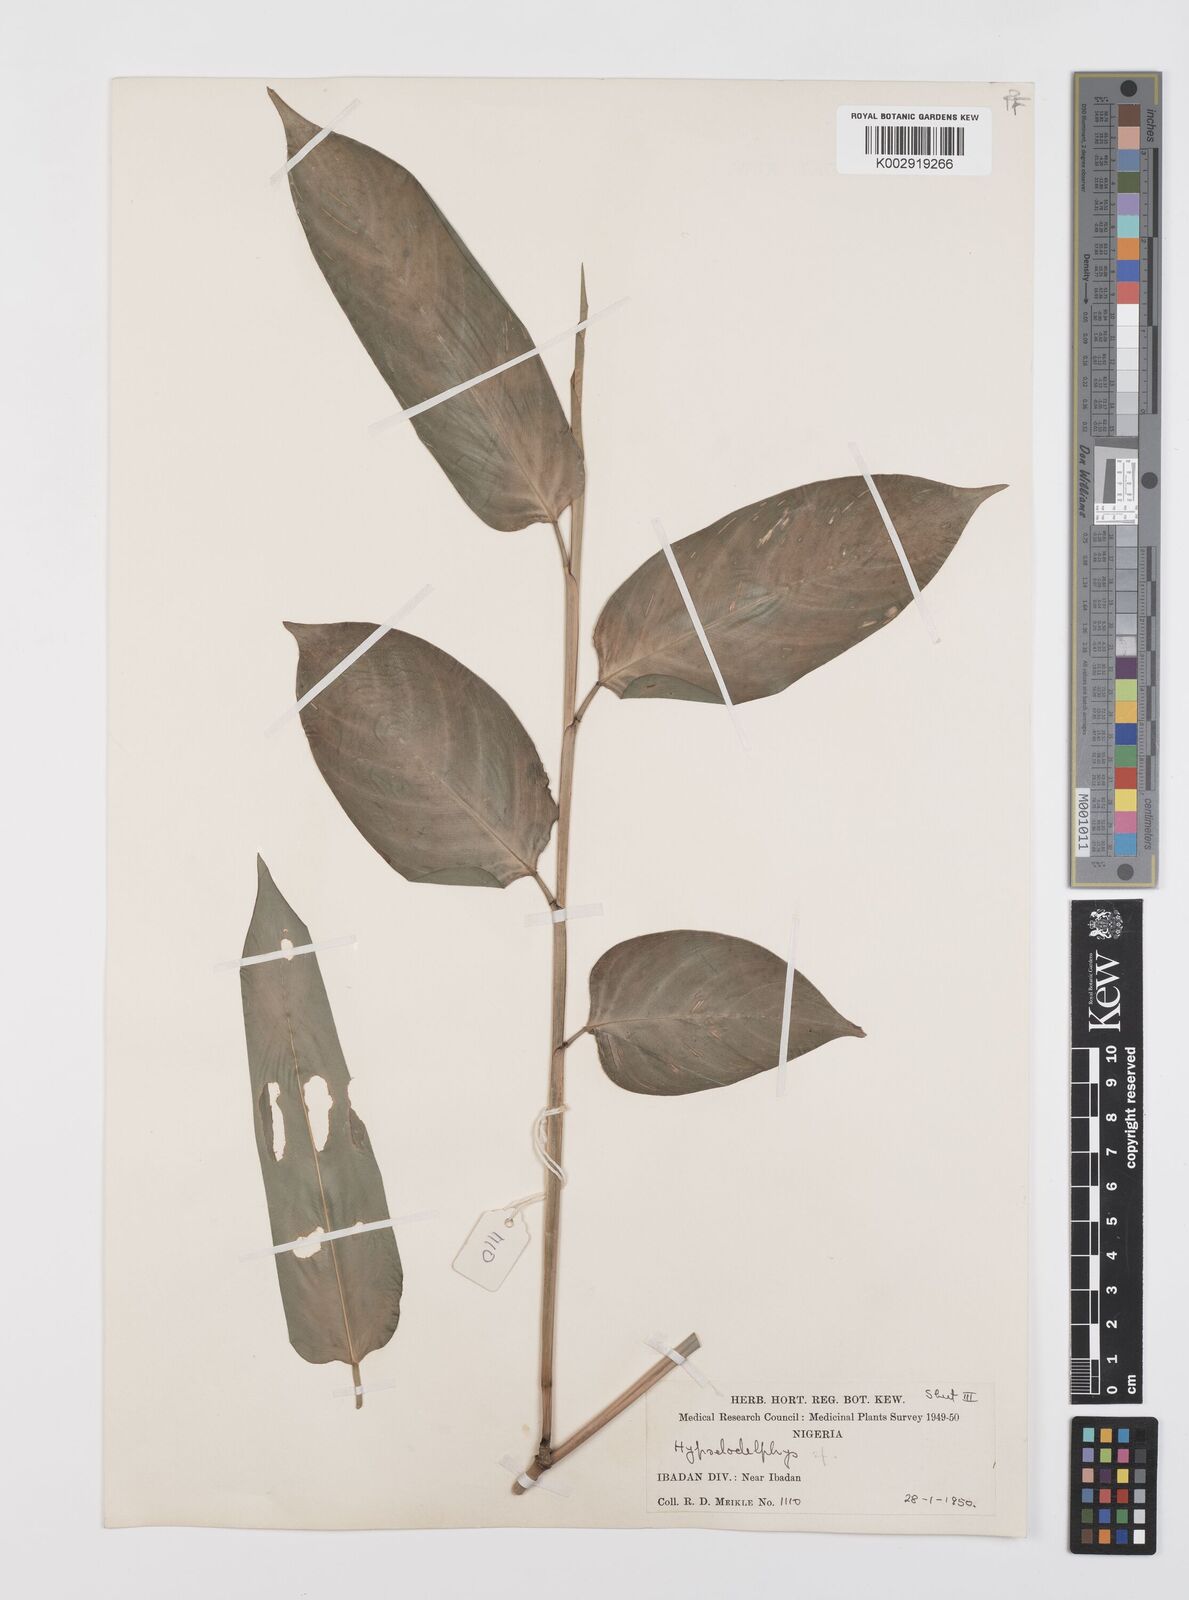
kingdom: Plantae
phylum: Tracheophyta
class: Liliopsida
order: Zingiberales
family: Marantaceae
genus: Hypselodelphys
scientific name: Hypselodelphys
